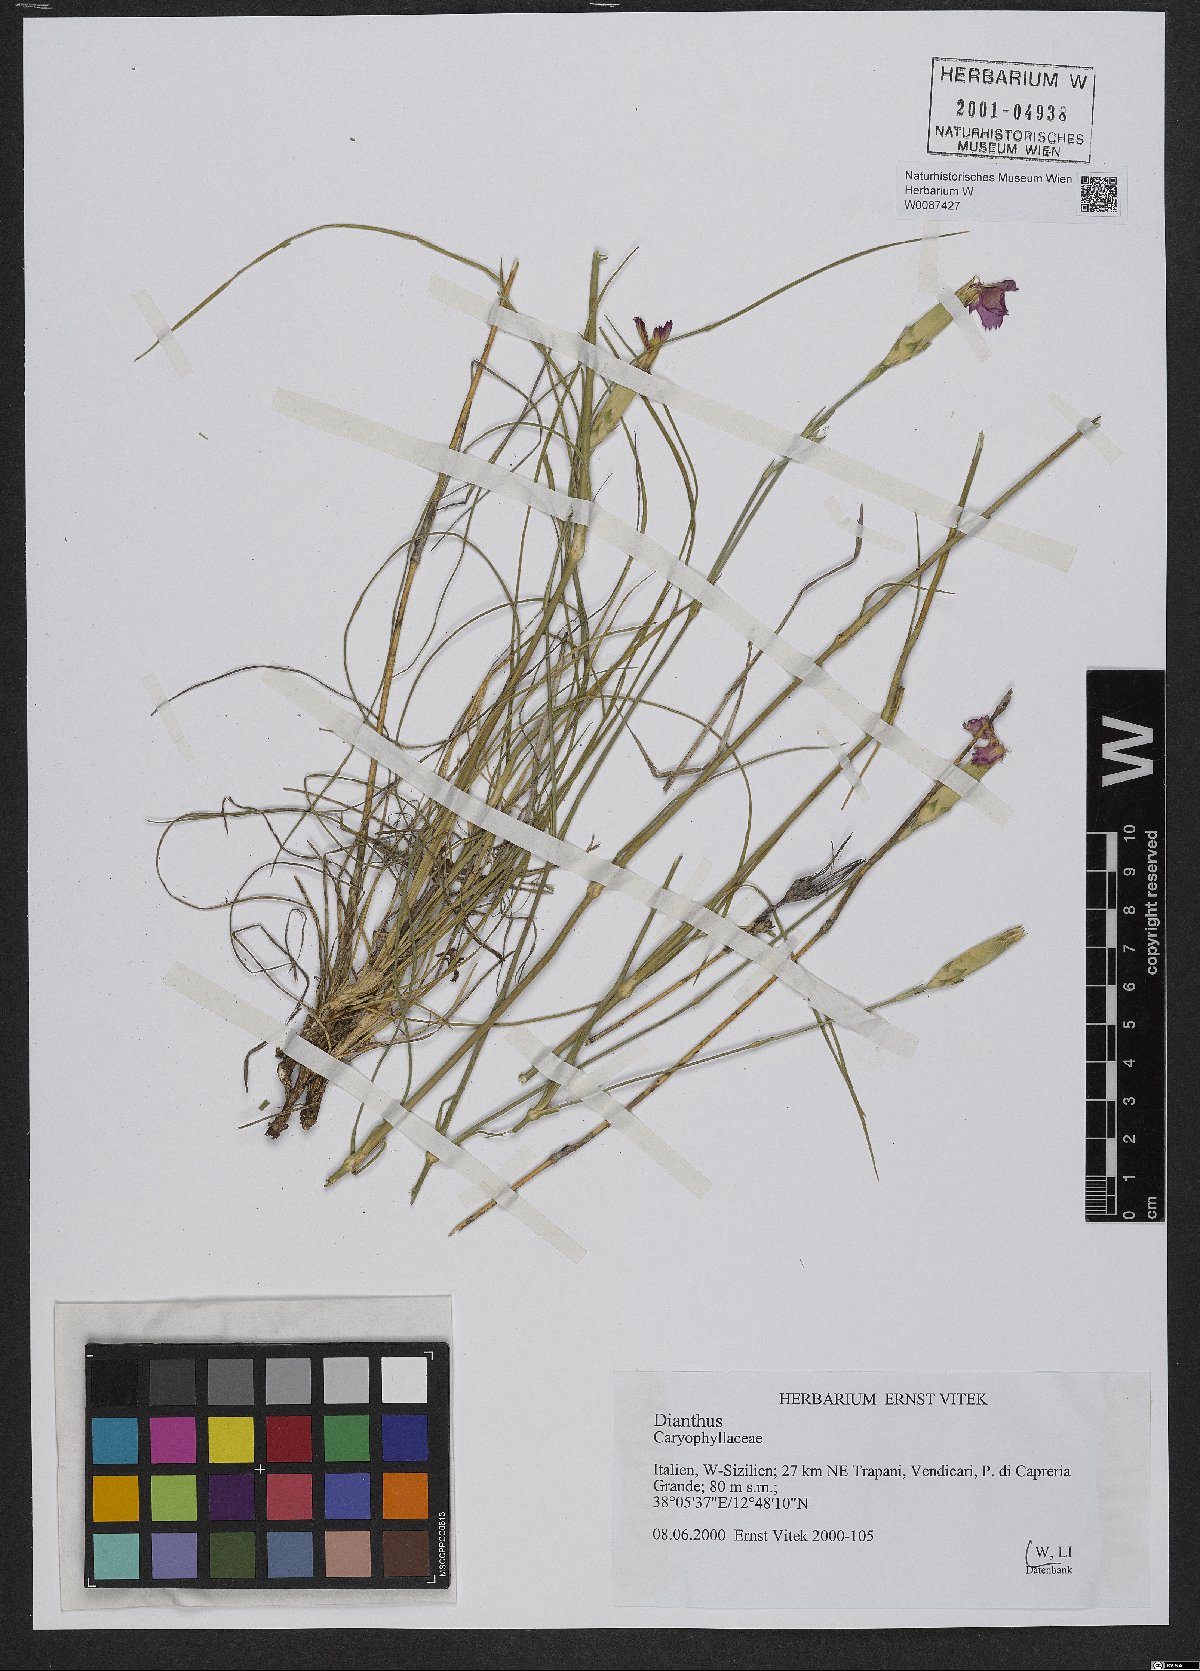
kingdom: Plantae
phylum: Tracheophyta
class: Magnoliopsida
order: Caryophyllales
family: Caryophyllaceae
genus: Dianthus
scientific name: Dianthus
